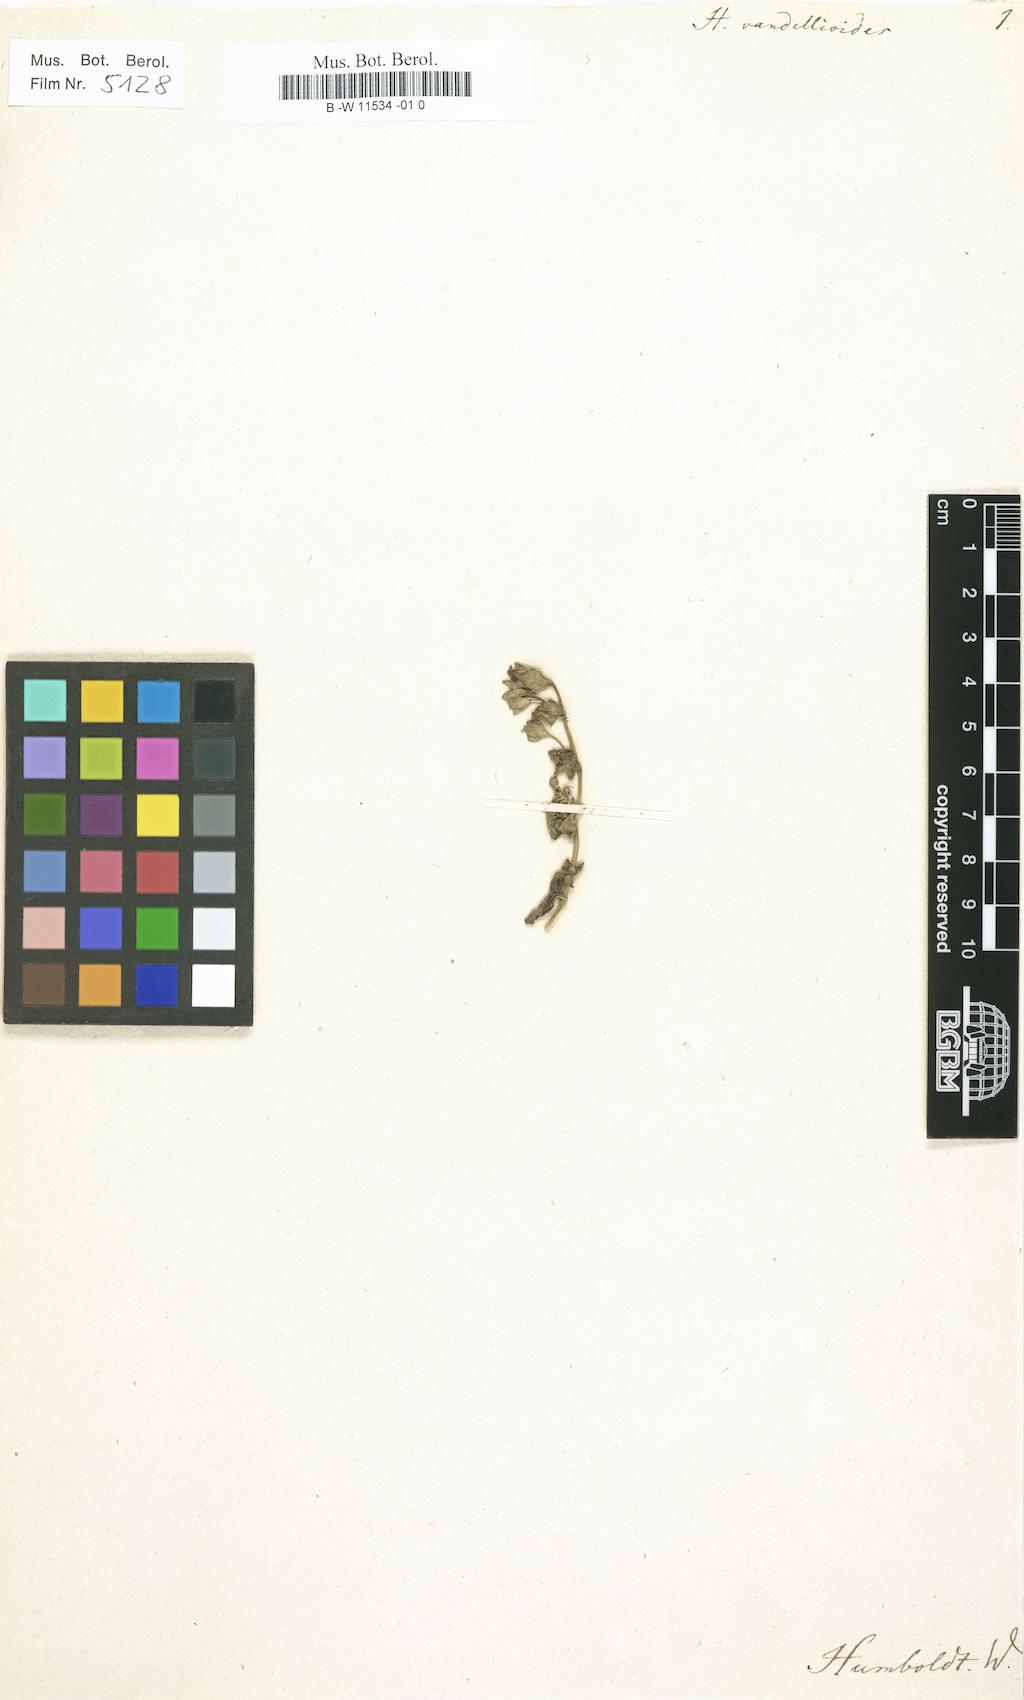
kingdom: Plantae
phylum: Tracheophyta
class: Magnoliopsida
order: Lamiales
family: Plantaginaceae
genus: Mecardonia
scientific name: Mecardonia procumbens
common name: Baby jump-up
